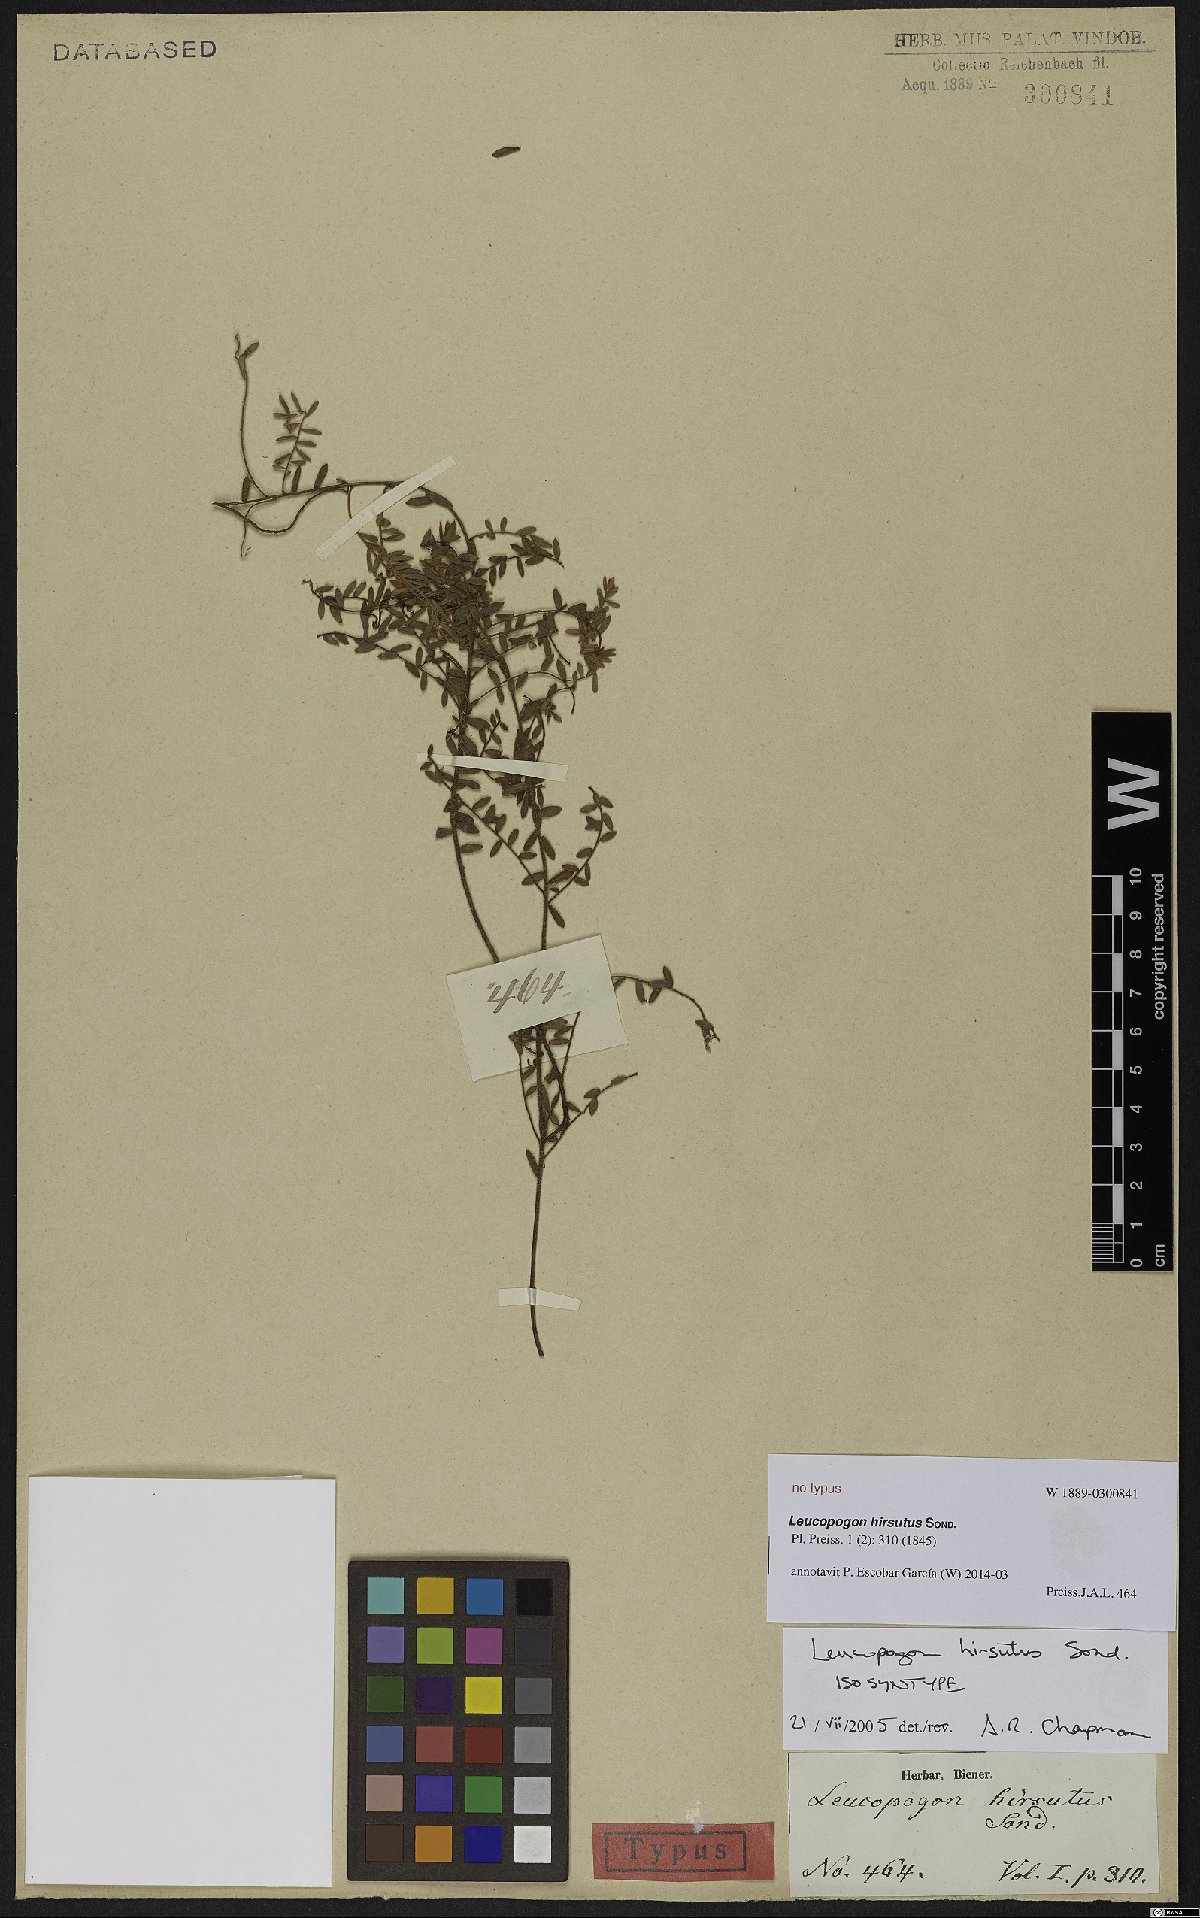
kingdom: Plantae
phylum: Tracheophyta
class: Magnoliopsida
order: Ericales
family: Ericaceae
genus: Leucopogon
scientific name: Leucopogon hirsutus
